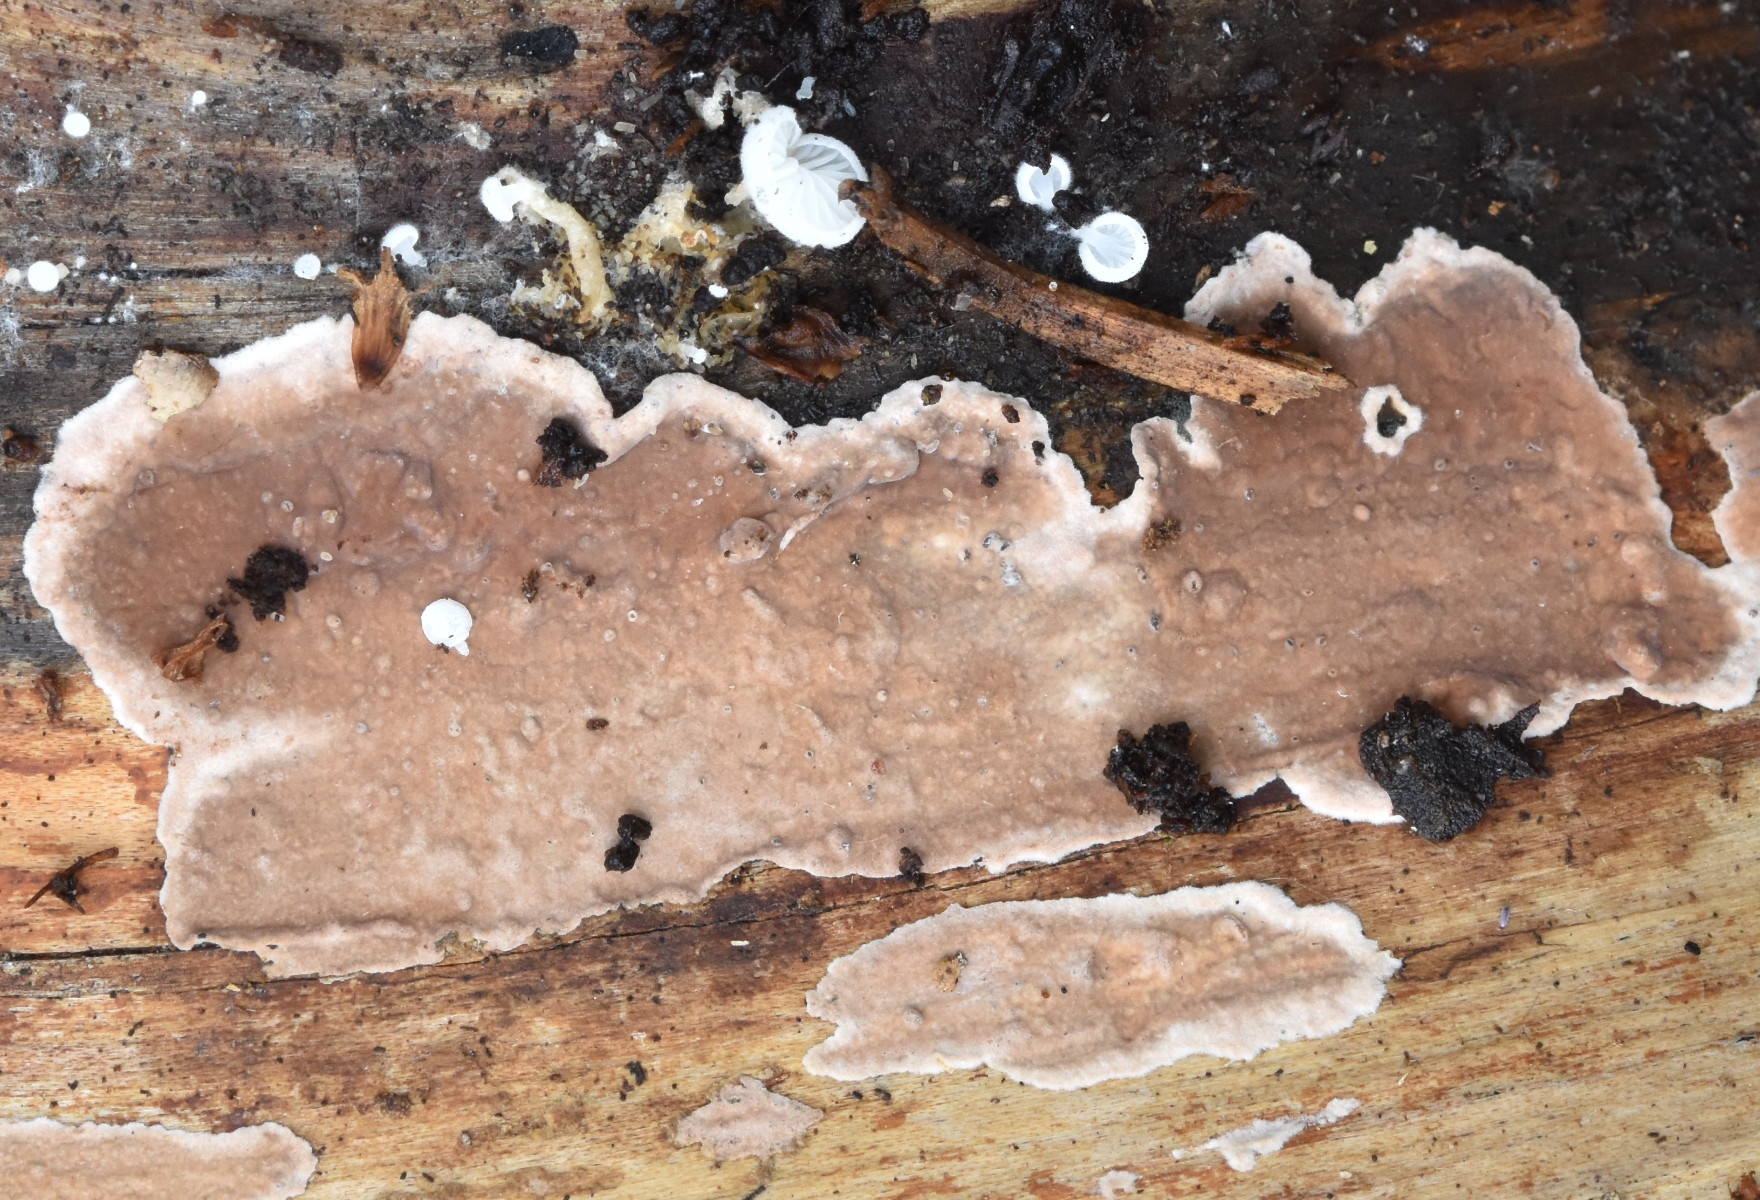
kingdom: Fungi
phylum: Basidiomycota
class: Agaricomycetes
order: Russulales
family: Echinodontiaceae
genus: Amylostereum
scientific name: Amylostereum chailletii
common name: gran-lædersvamp
